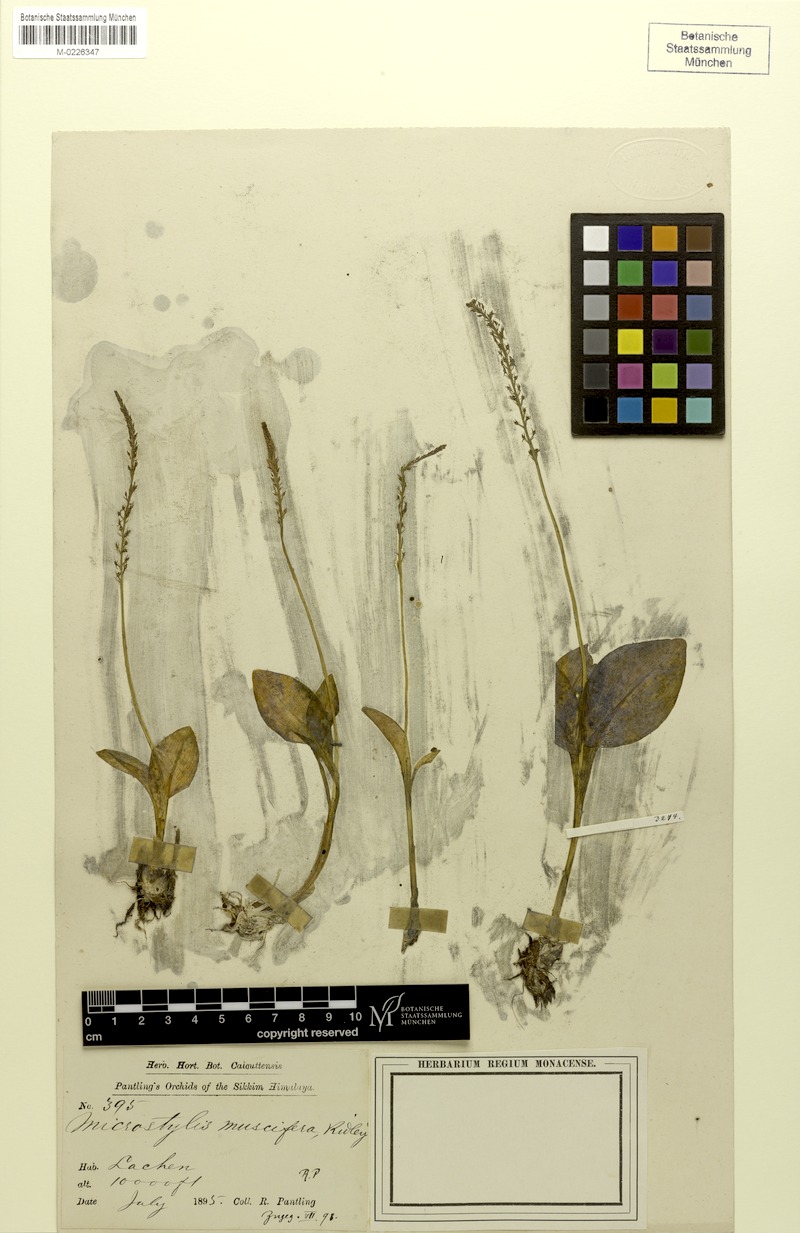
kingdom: Plantae
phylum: Tracheophyta
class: Liliopsida
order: Asparagales
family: Orchidaceae
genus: Malaxis
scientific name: Malaxis muscifera
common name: Adder-mouth orchid
